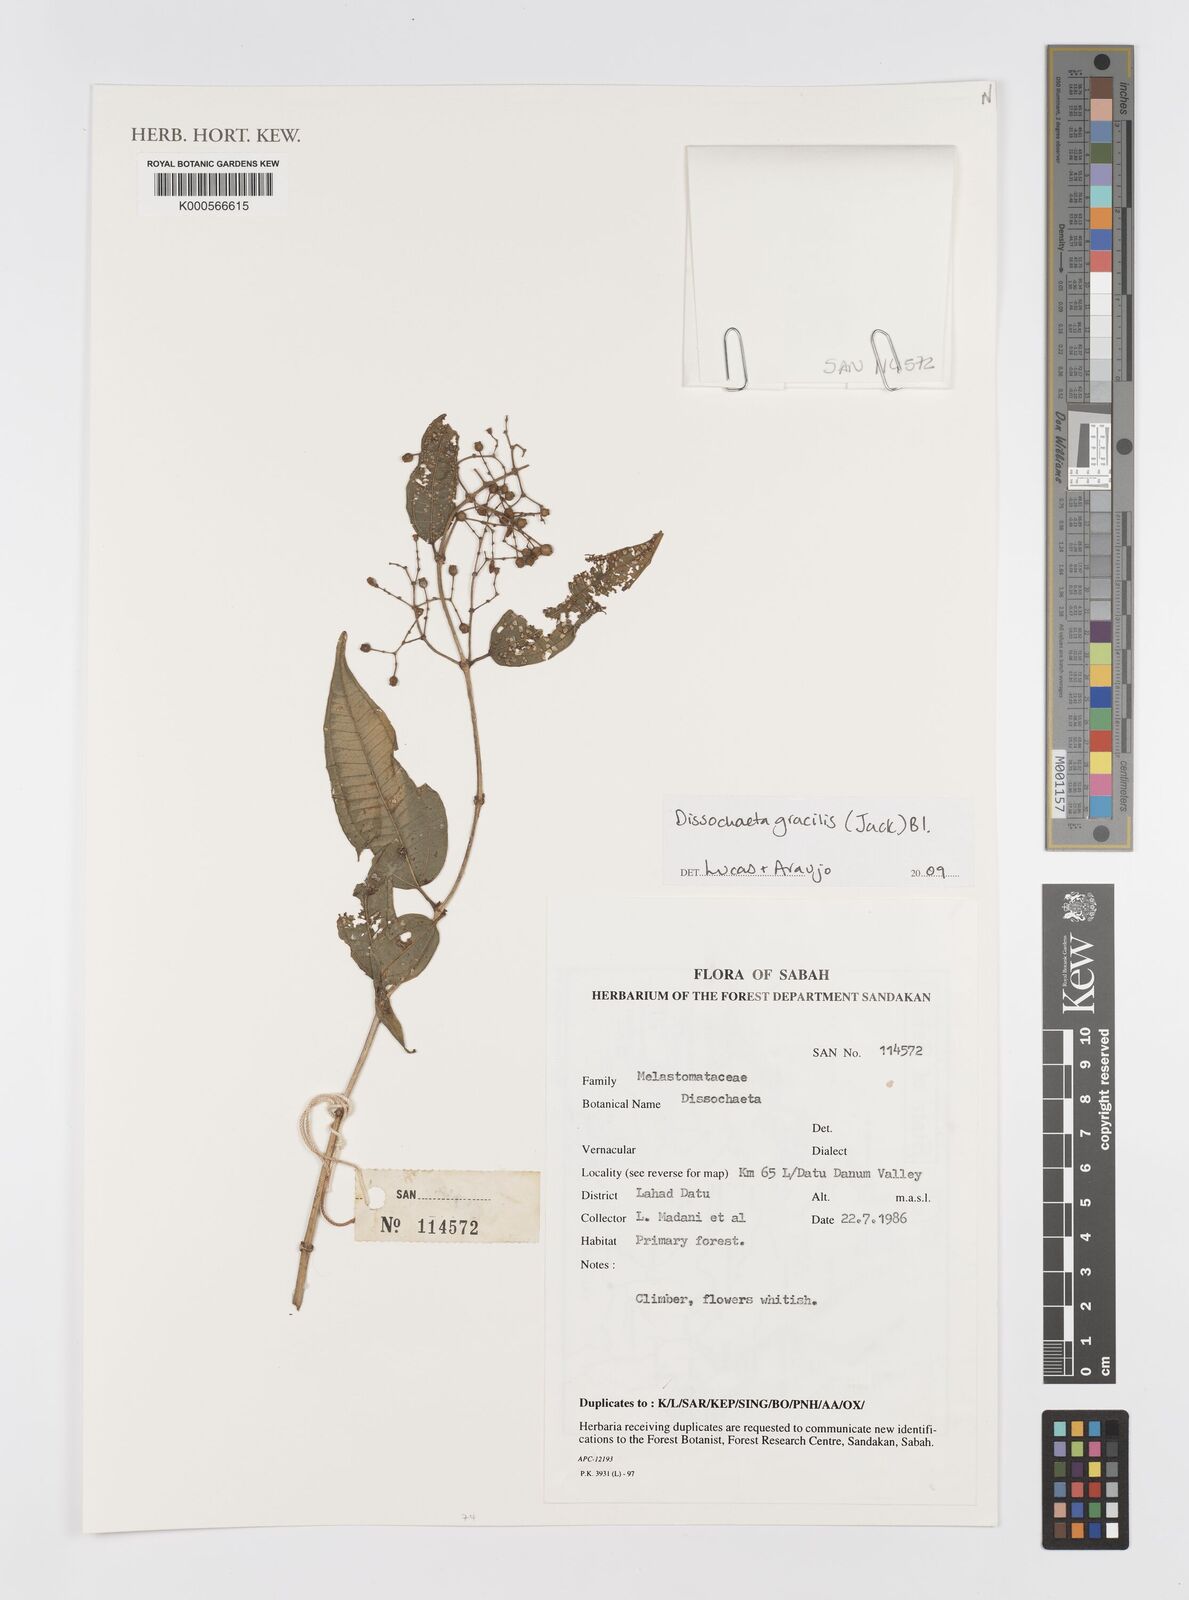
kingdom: Plantae
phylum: Tracheophyta
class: Magnoliopsida
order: Myrtales
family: Melastomataceae
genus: Dissochaeta
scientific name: Dissochaeta gracilis
